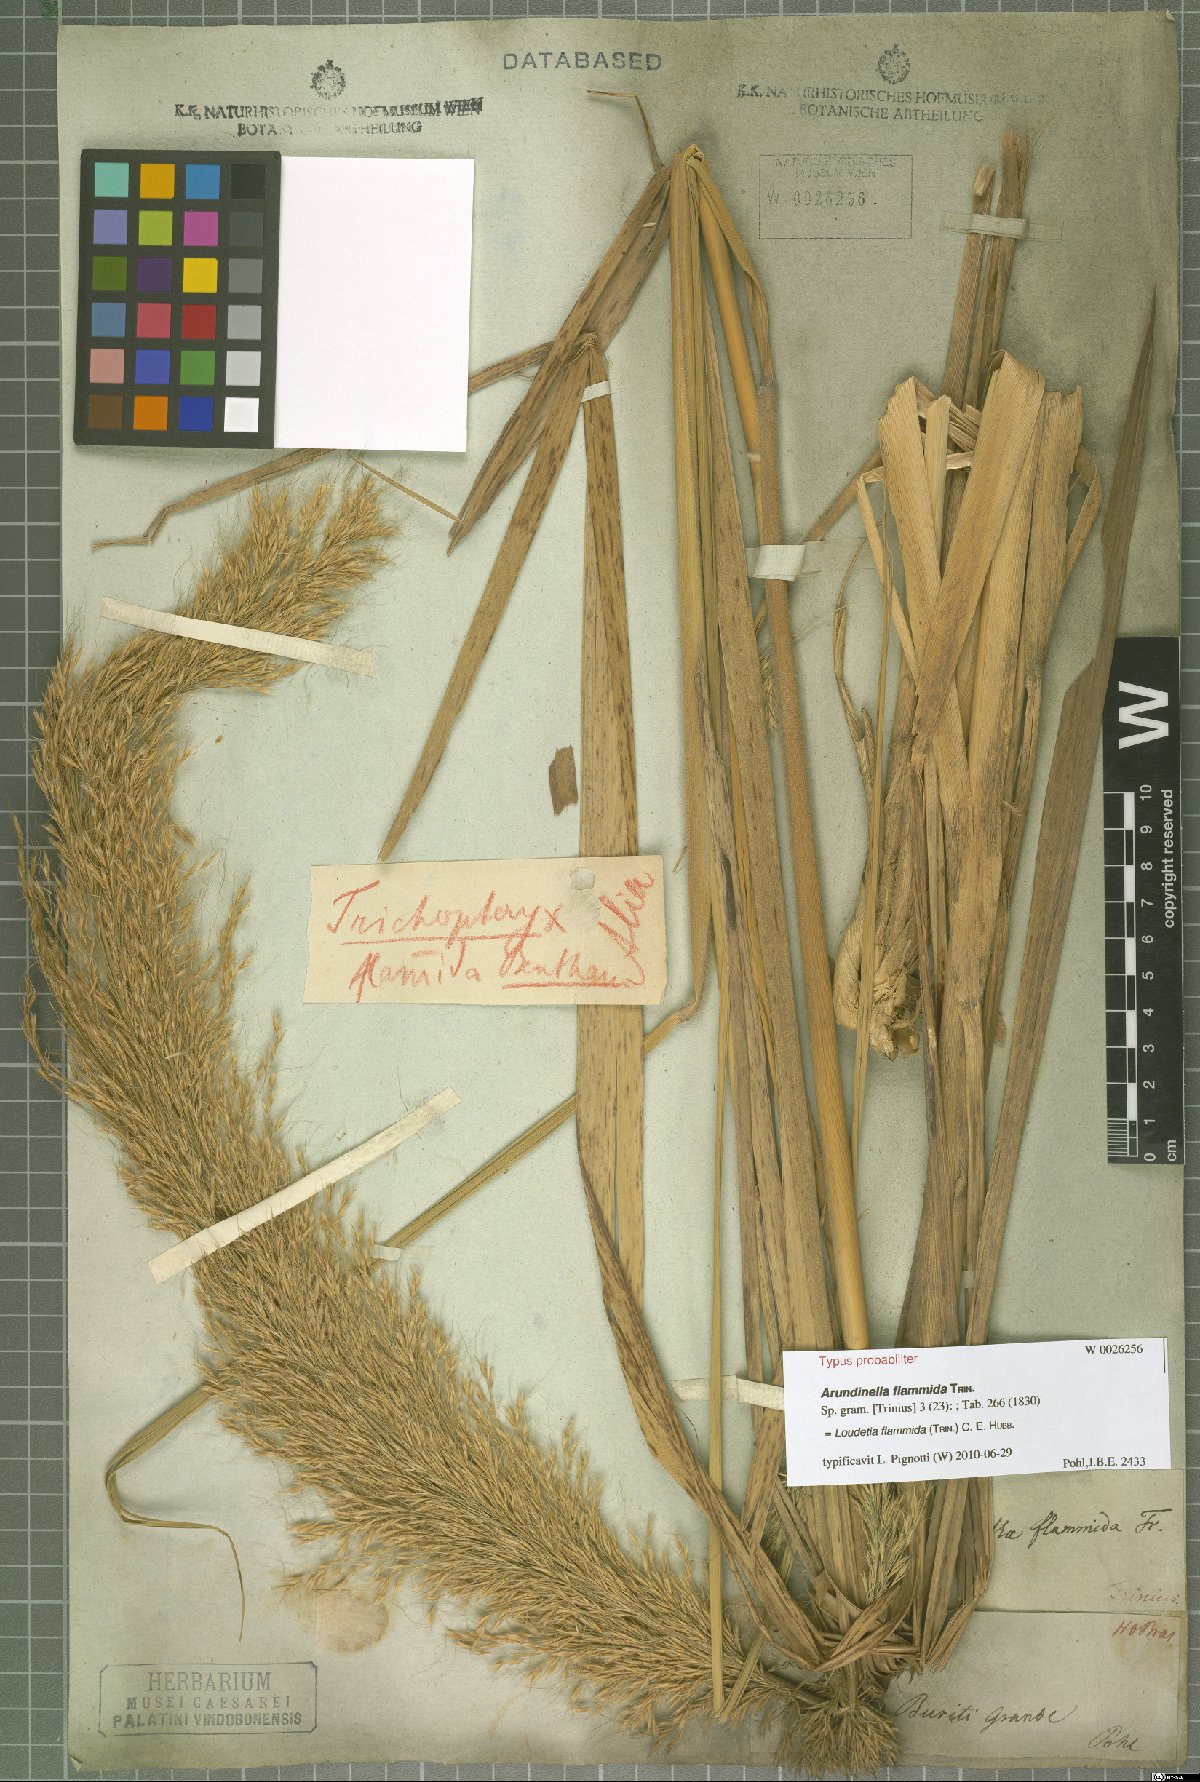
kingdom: Plantae
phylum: Tracheophyta
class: Liliopsida
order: Poales
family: Poaceae
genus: Loudetia
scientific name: Loudetia flammida
